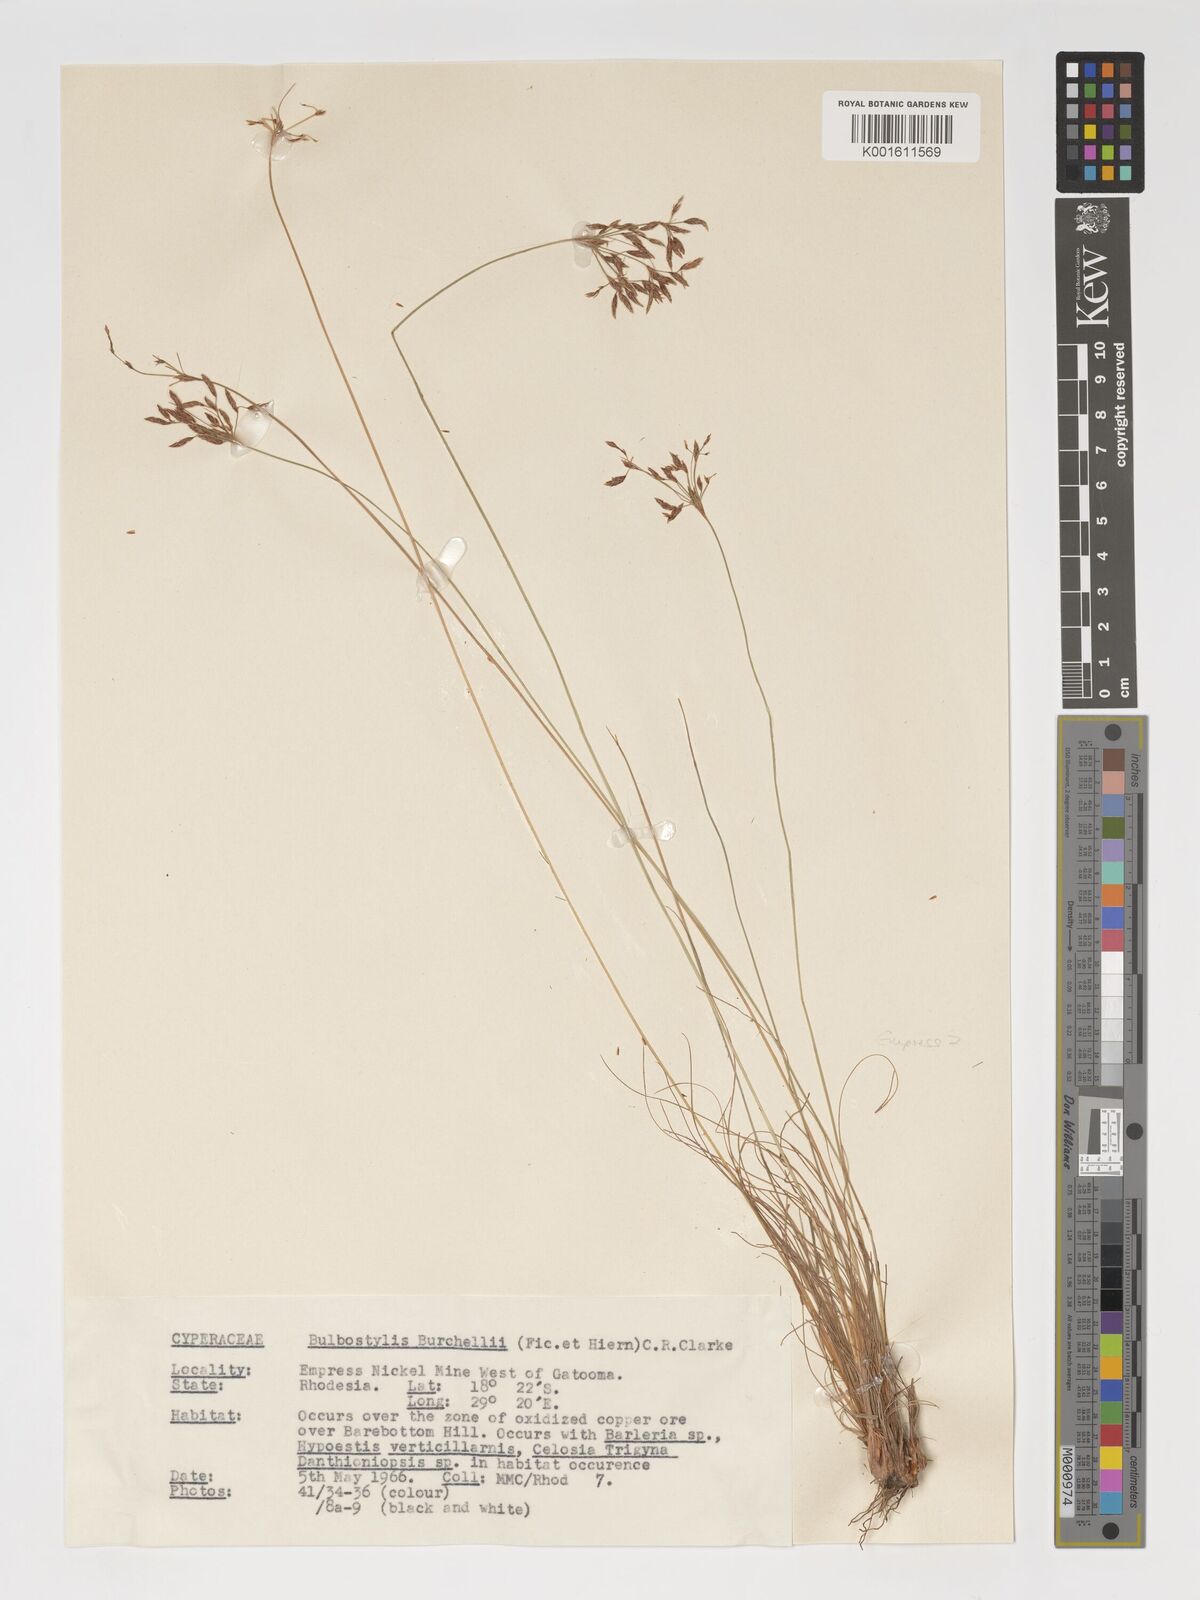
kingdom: Plantae
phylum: Tracheophyta
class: Liliopsida
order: Poales
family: Cyperaceae
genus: Bulbostylis
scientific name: Bulbostylis burchellii
